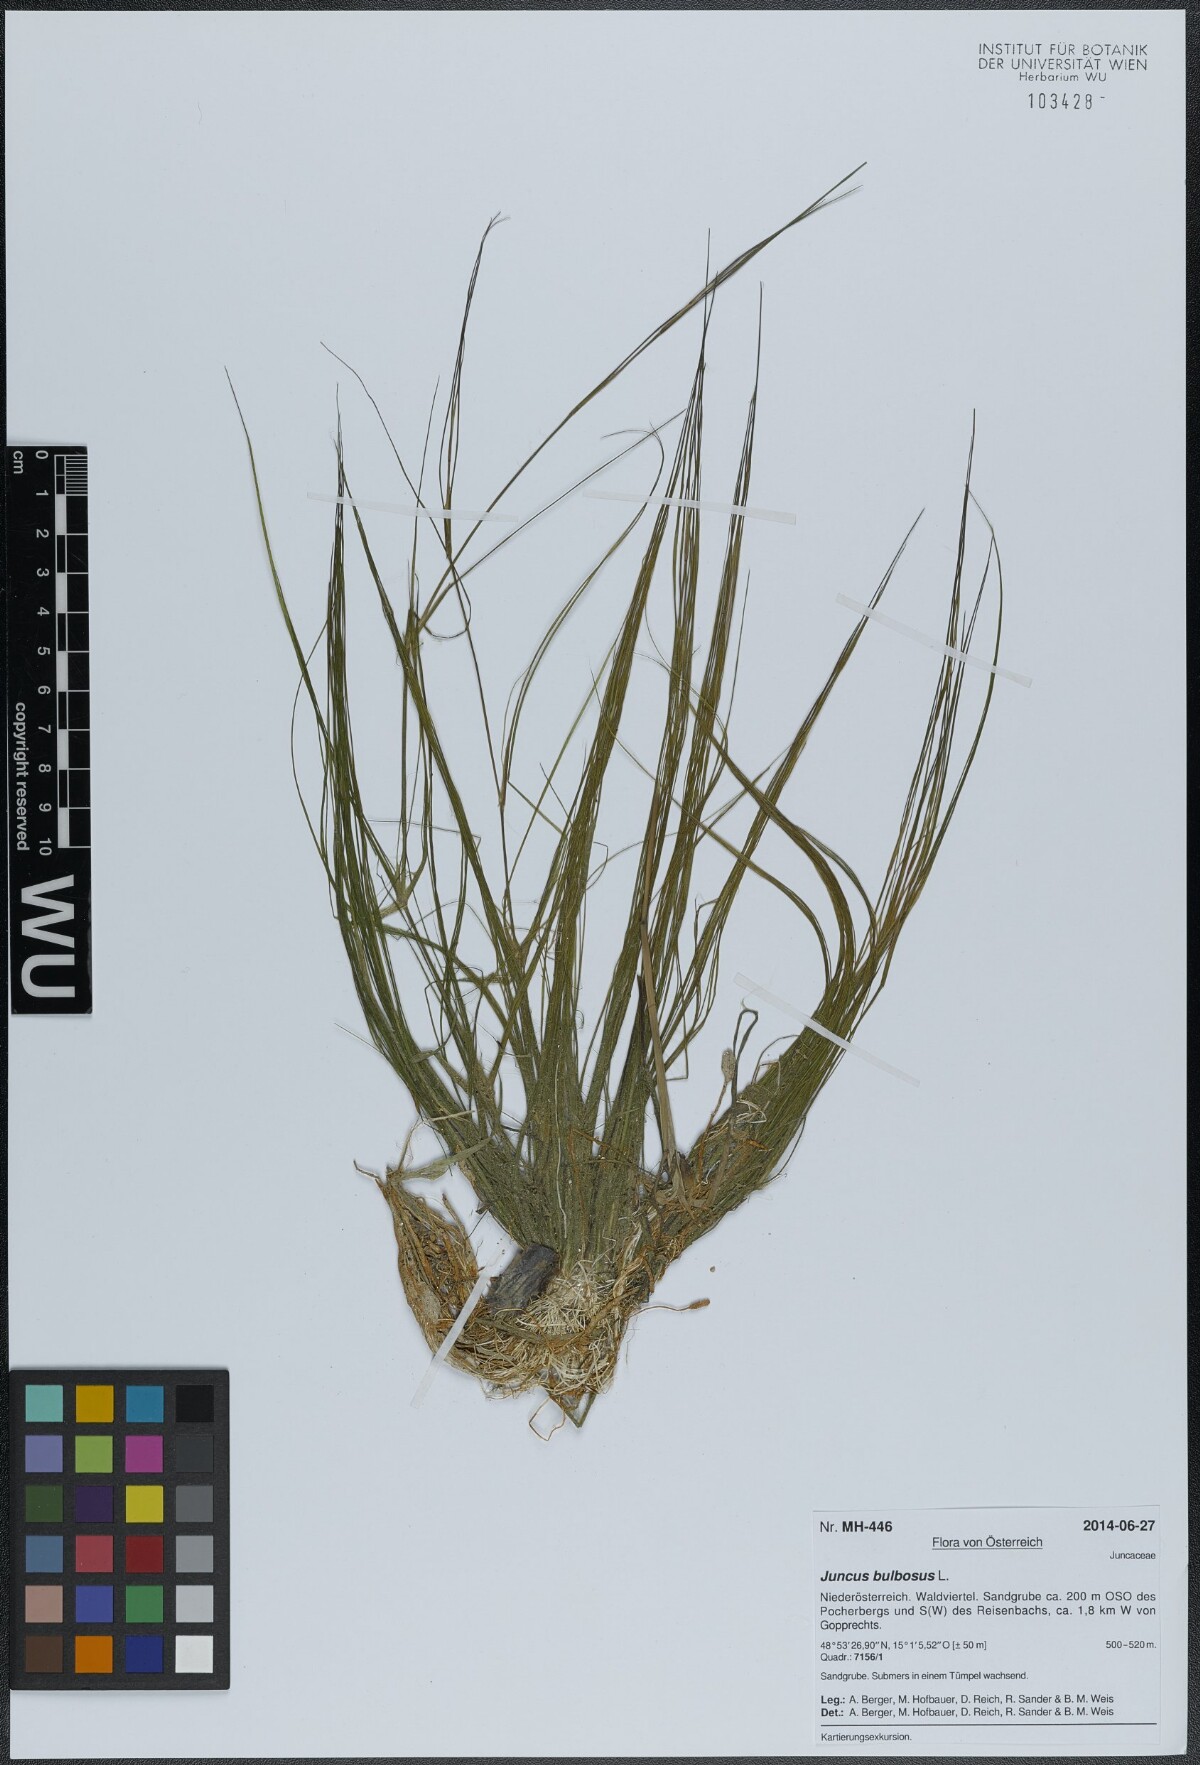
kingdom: Plantae
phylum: Tracheophyta
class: Liliopsida
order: Poales
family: Juncaceae
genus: Juncus
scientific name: Juncus bulbosus
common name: Bulbous rush
